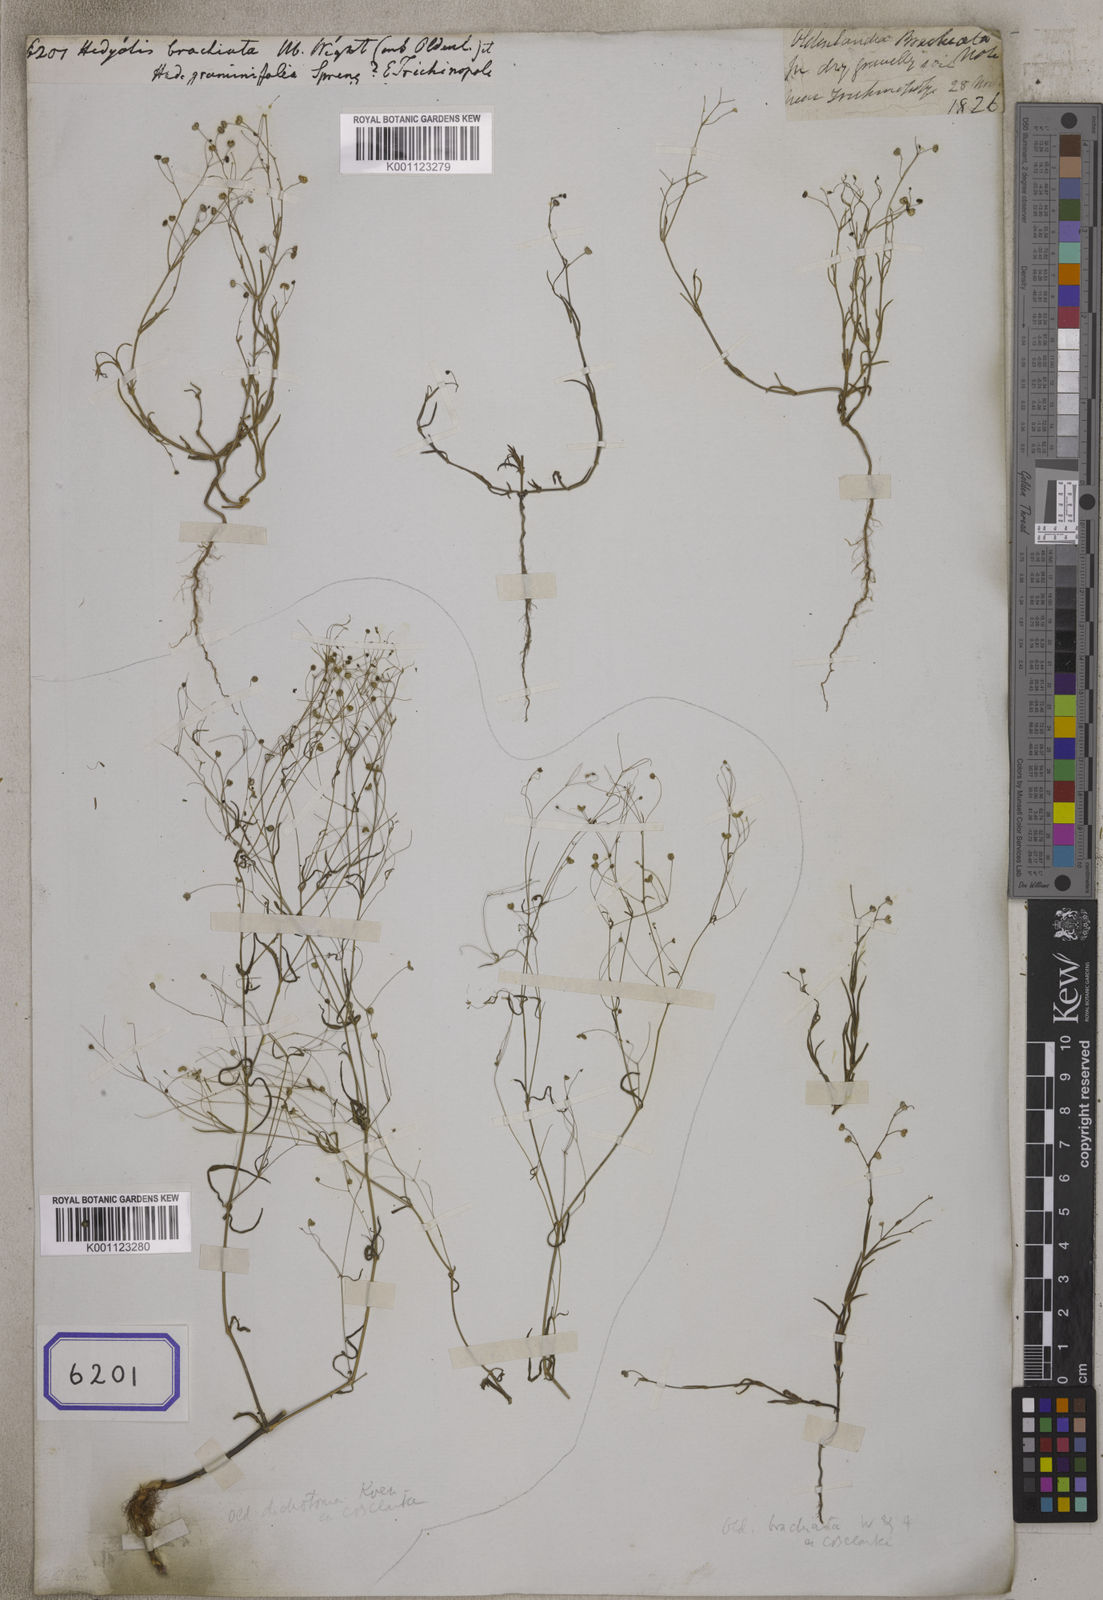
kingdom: Plantae
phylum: Tracheophyta
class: Magnoliopsida
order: Gentianales
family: Rubiaceae
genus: Kohautia
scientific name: Kohautia aspera
